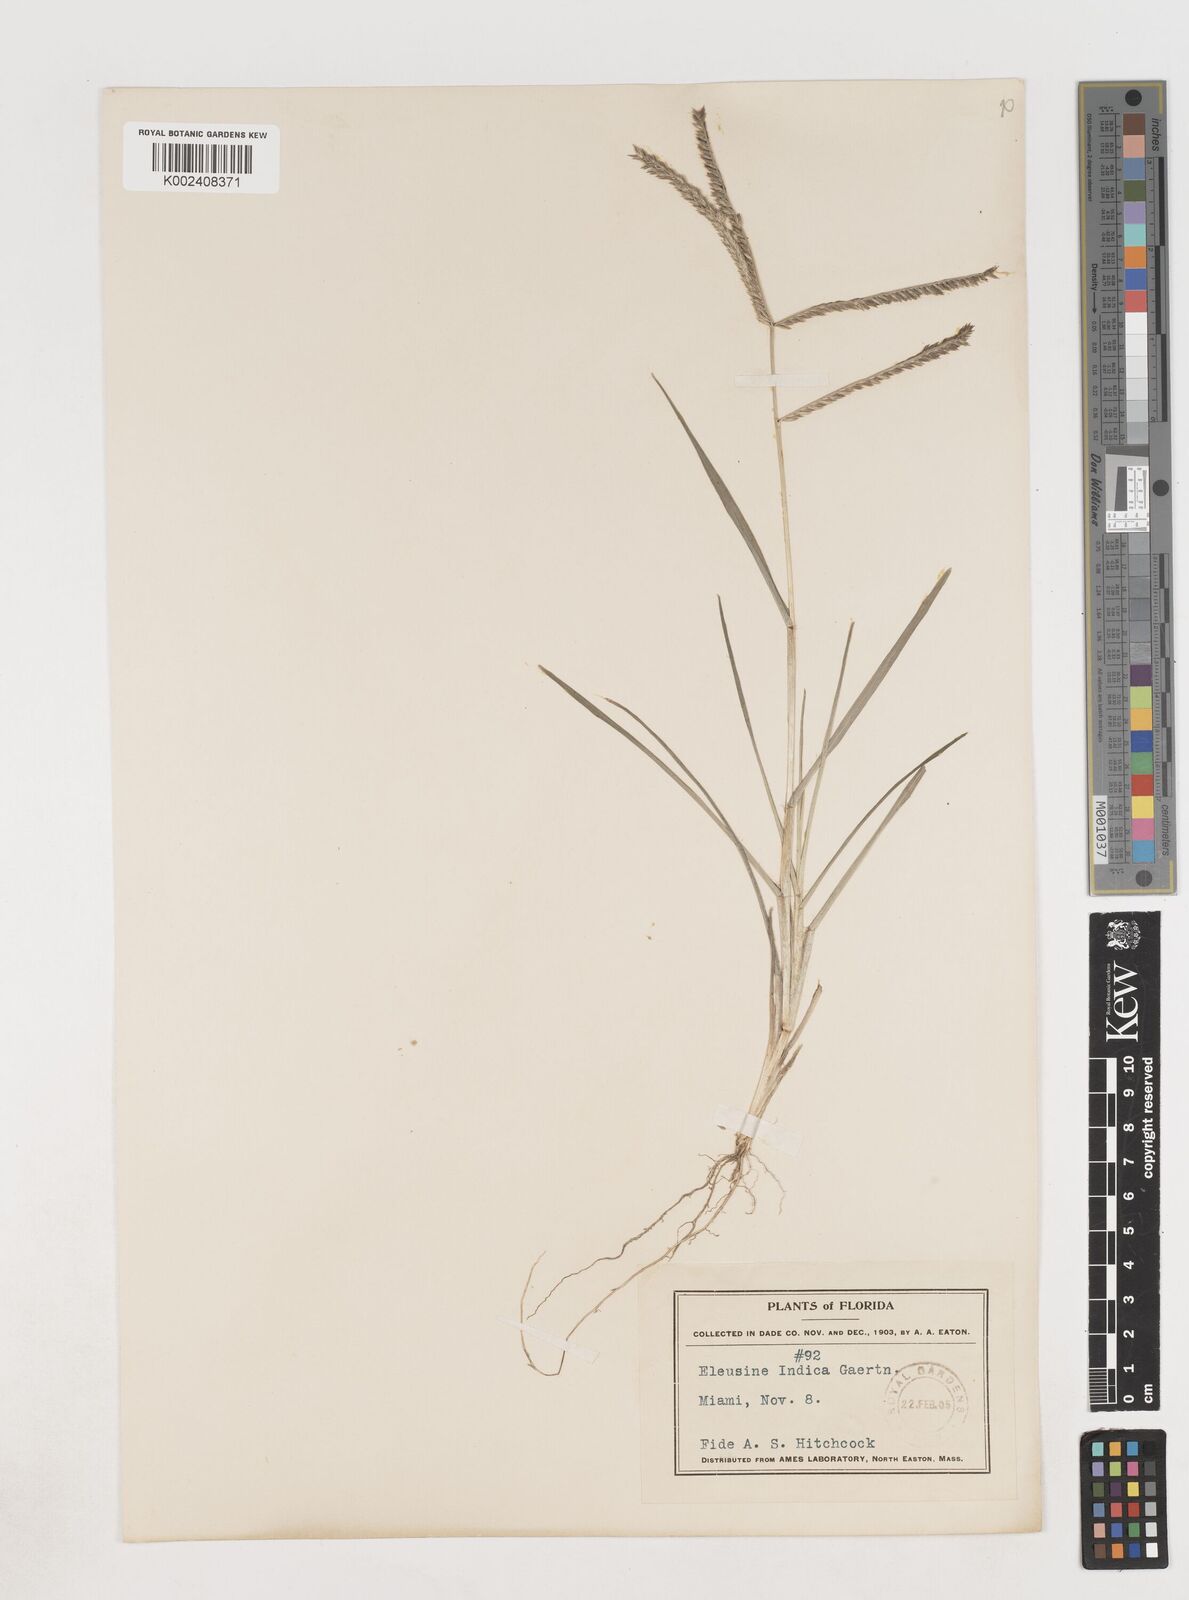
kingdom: Plantae
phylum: Tracheophyta
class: Liliopsida
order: Poales
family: Poaceae
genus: Eleusine
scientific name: Eleusine indica
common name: Yard-grass
